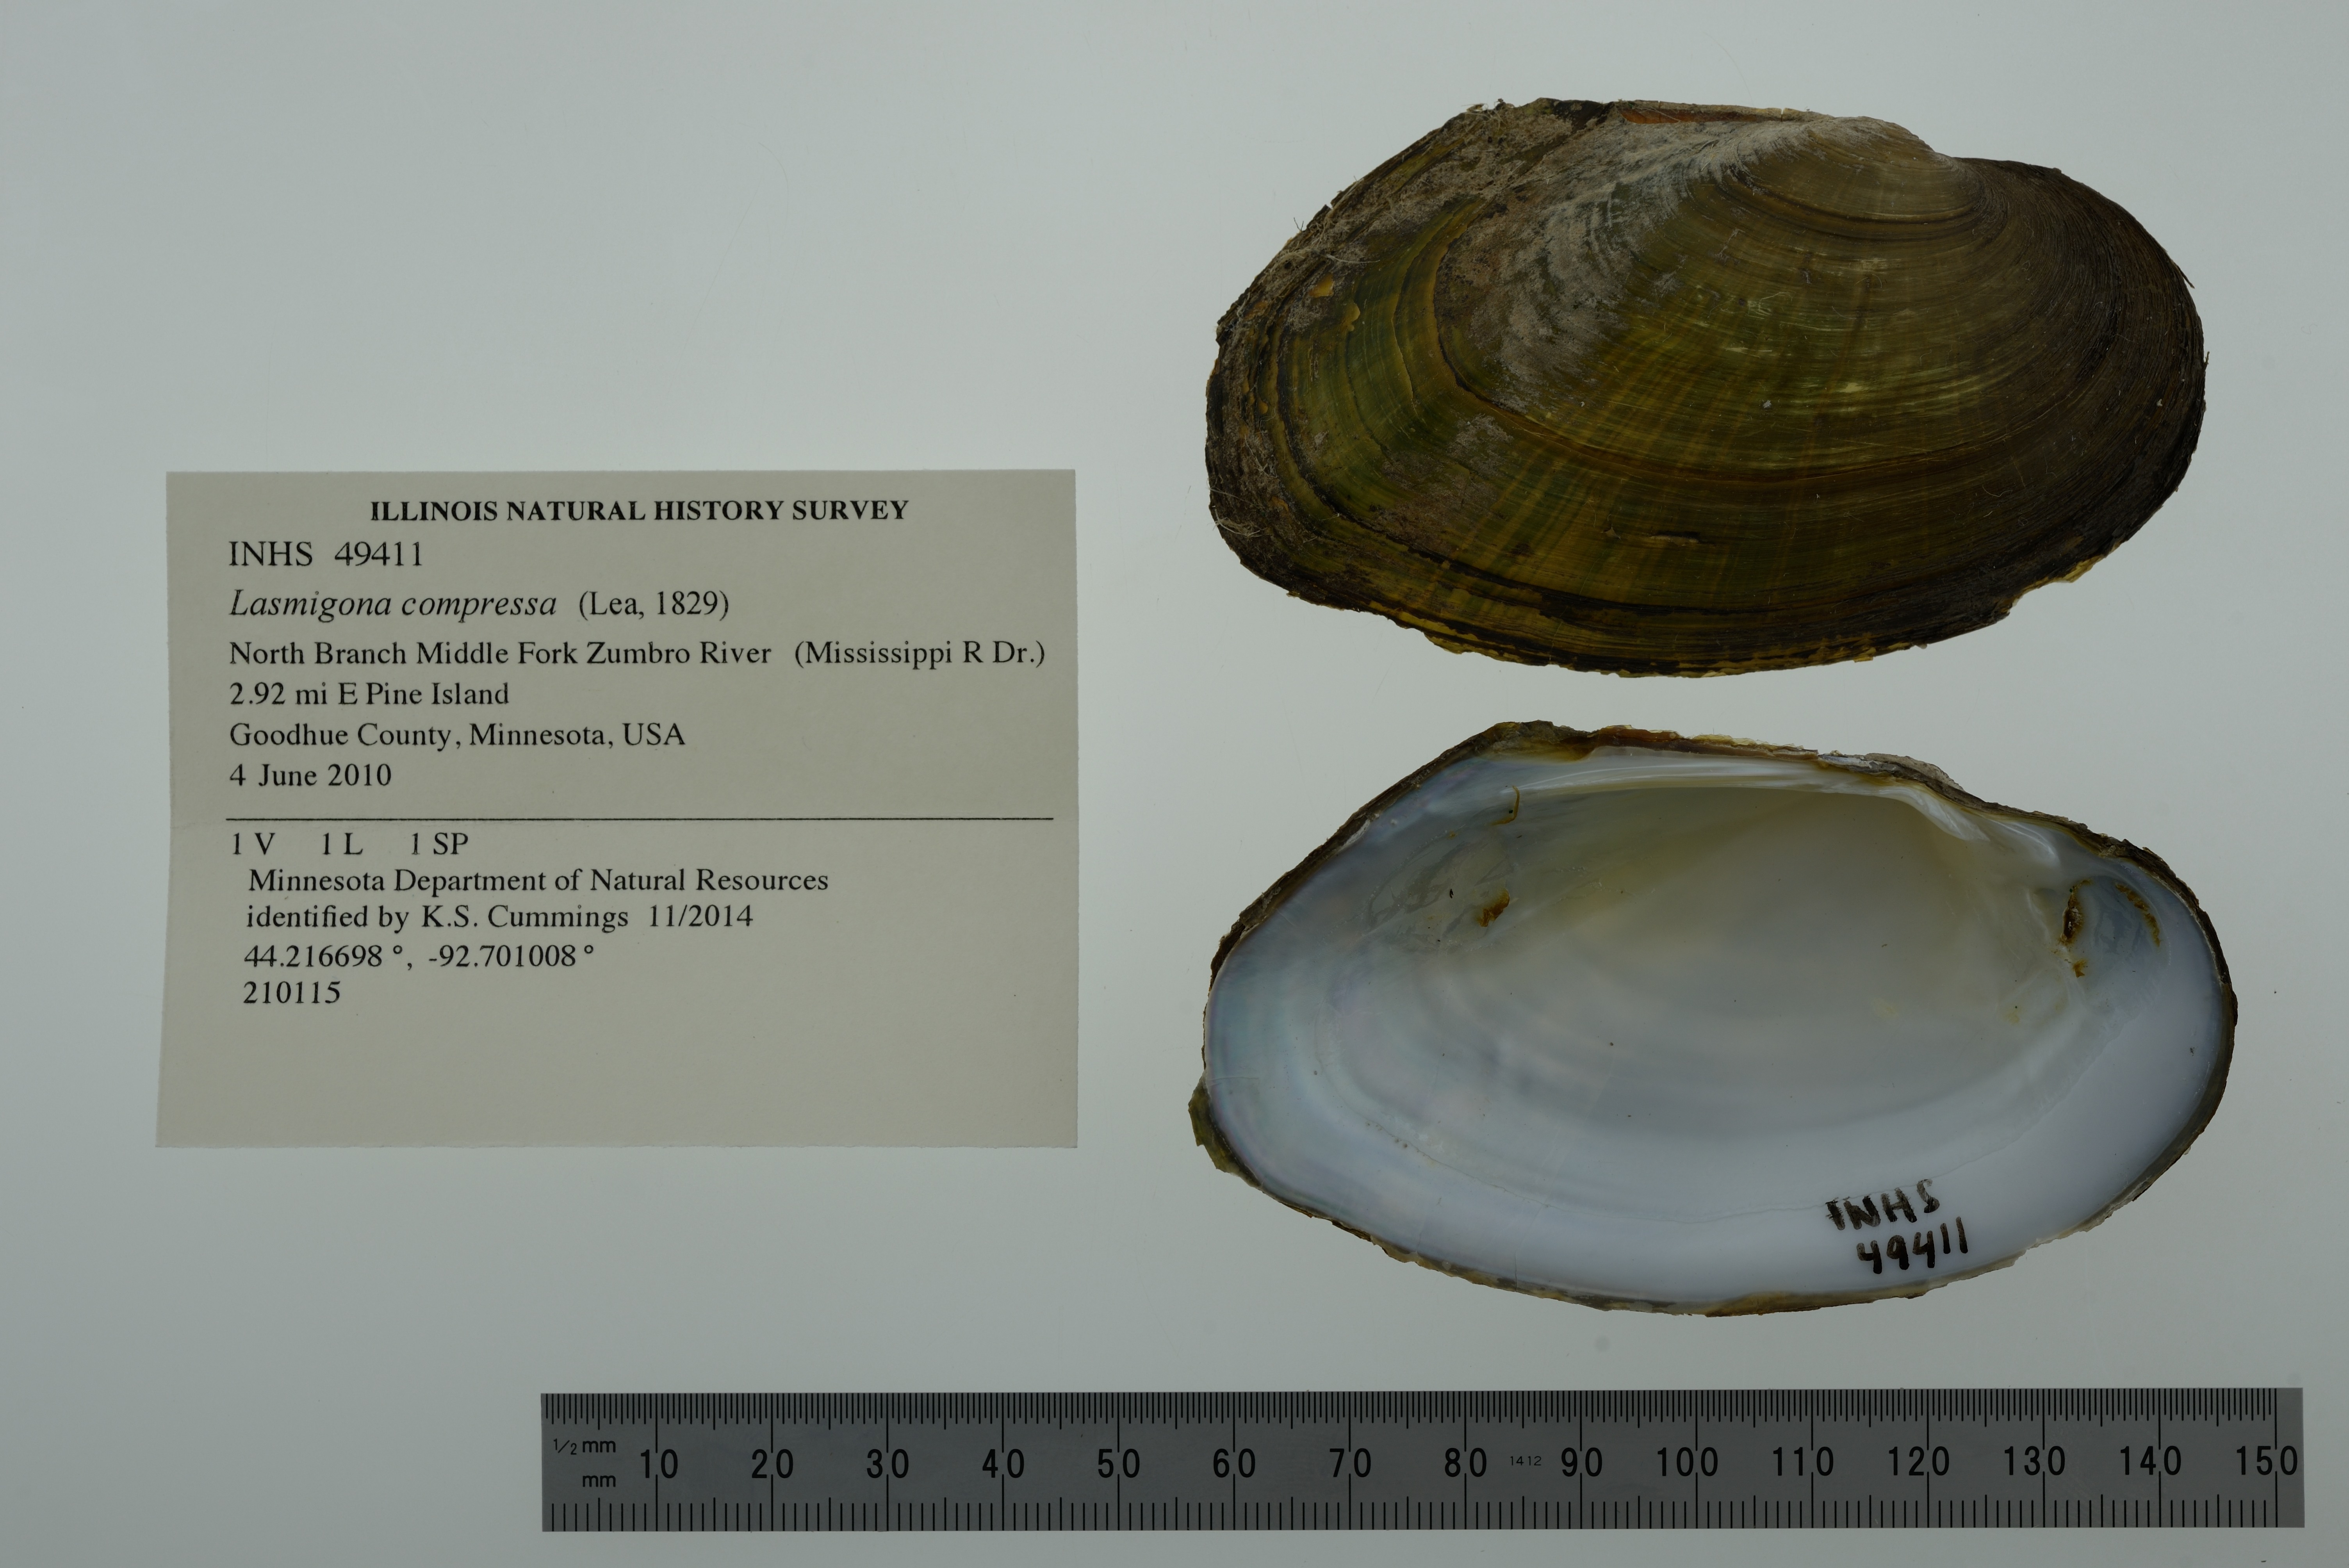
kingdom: Animalia
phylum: Mollusca
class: Bivalvia
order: Unionida
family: Unionidae
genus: Lasmigona
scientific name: Lasmigona compressa
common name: Creek heelsplitter
